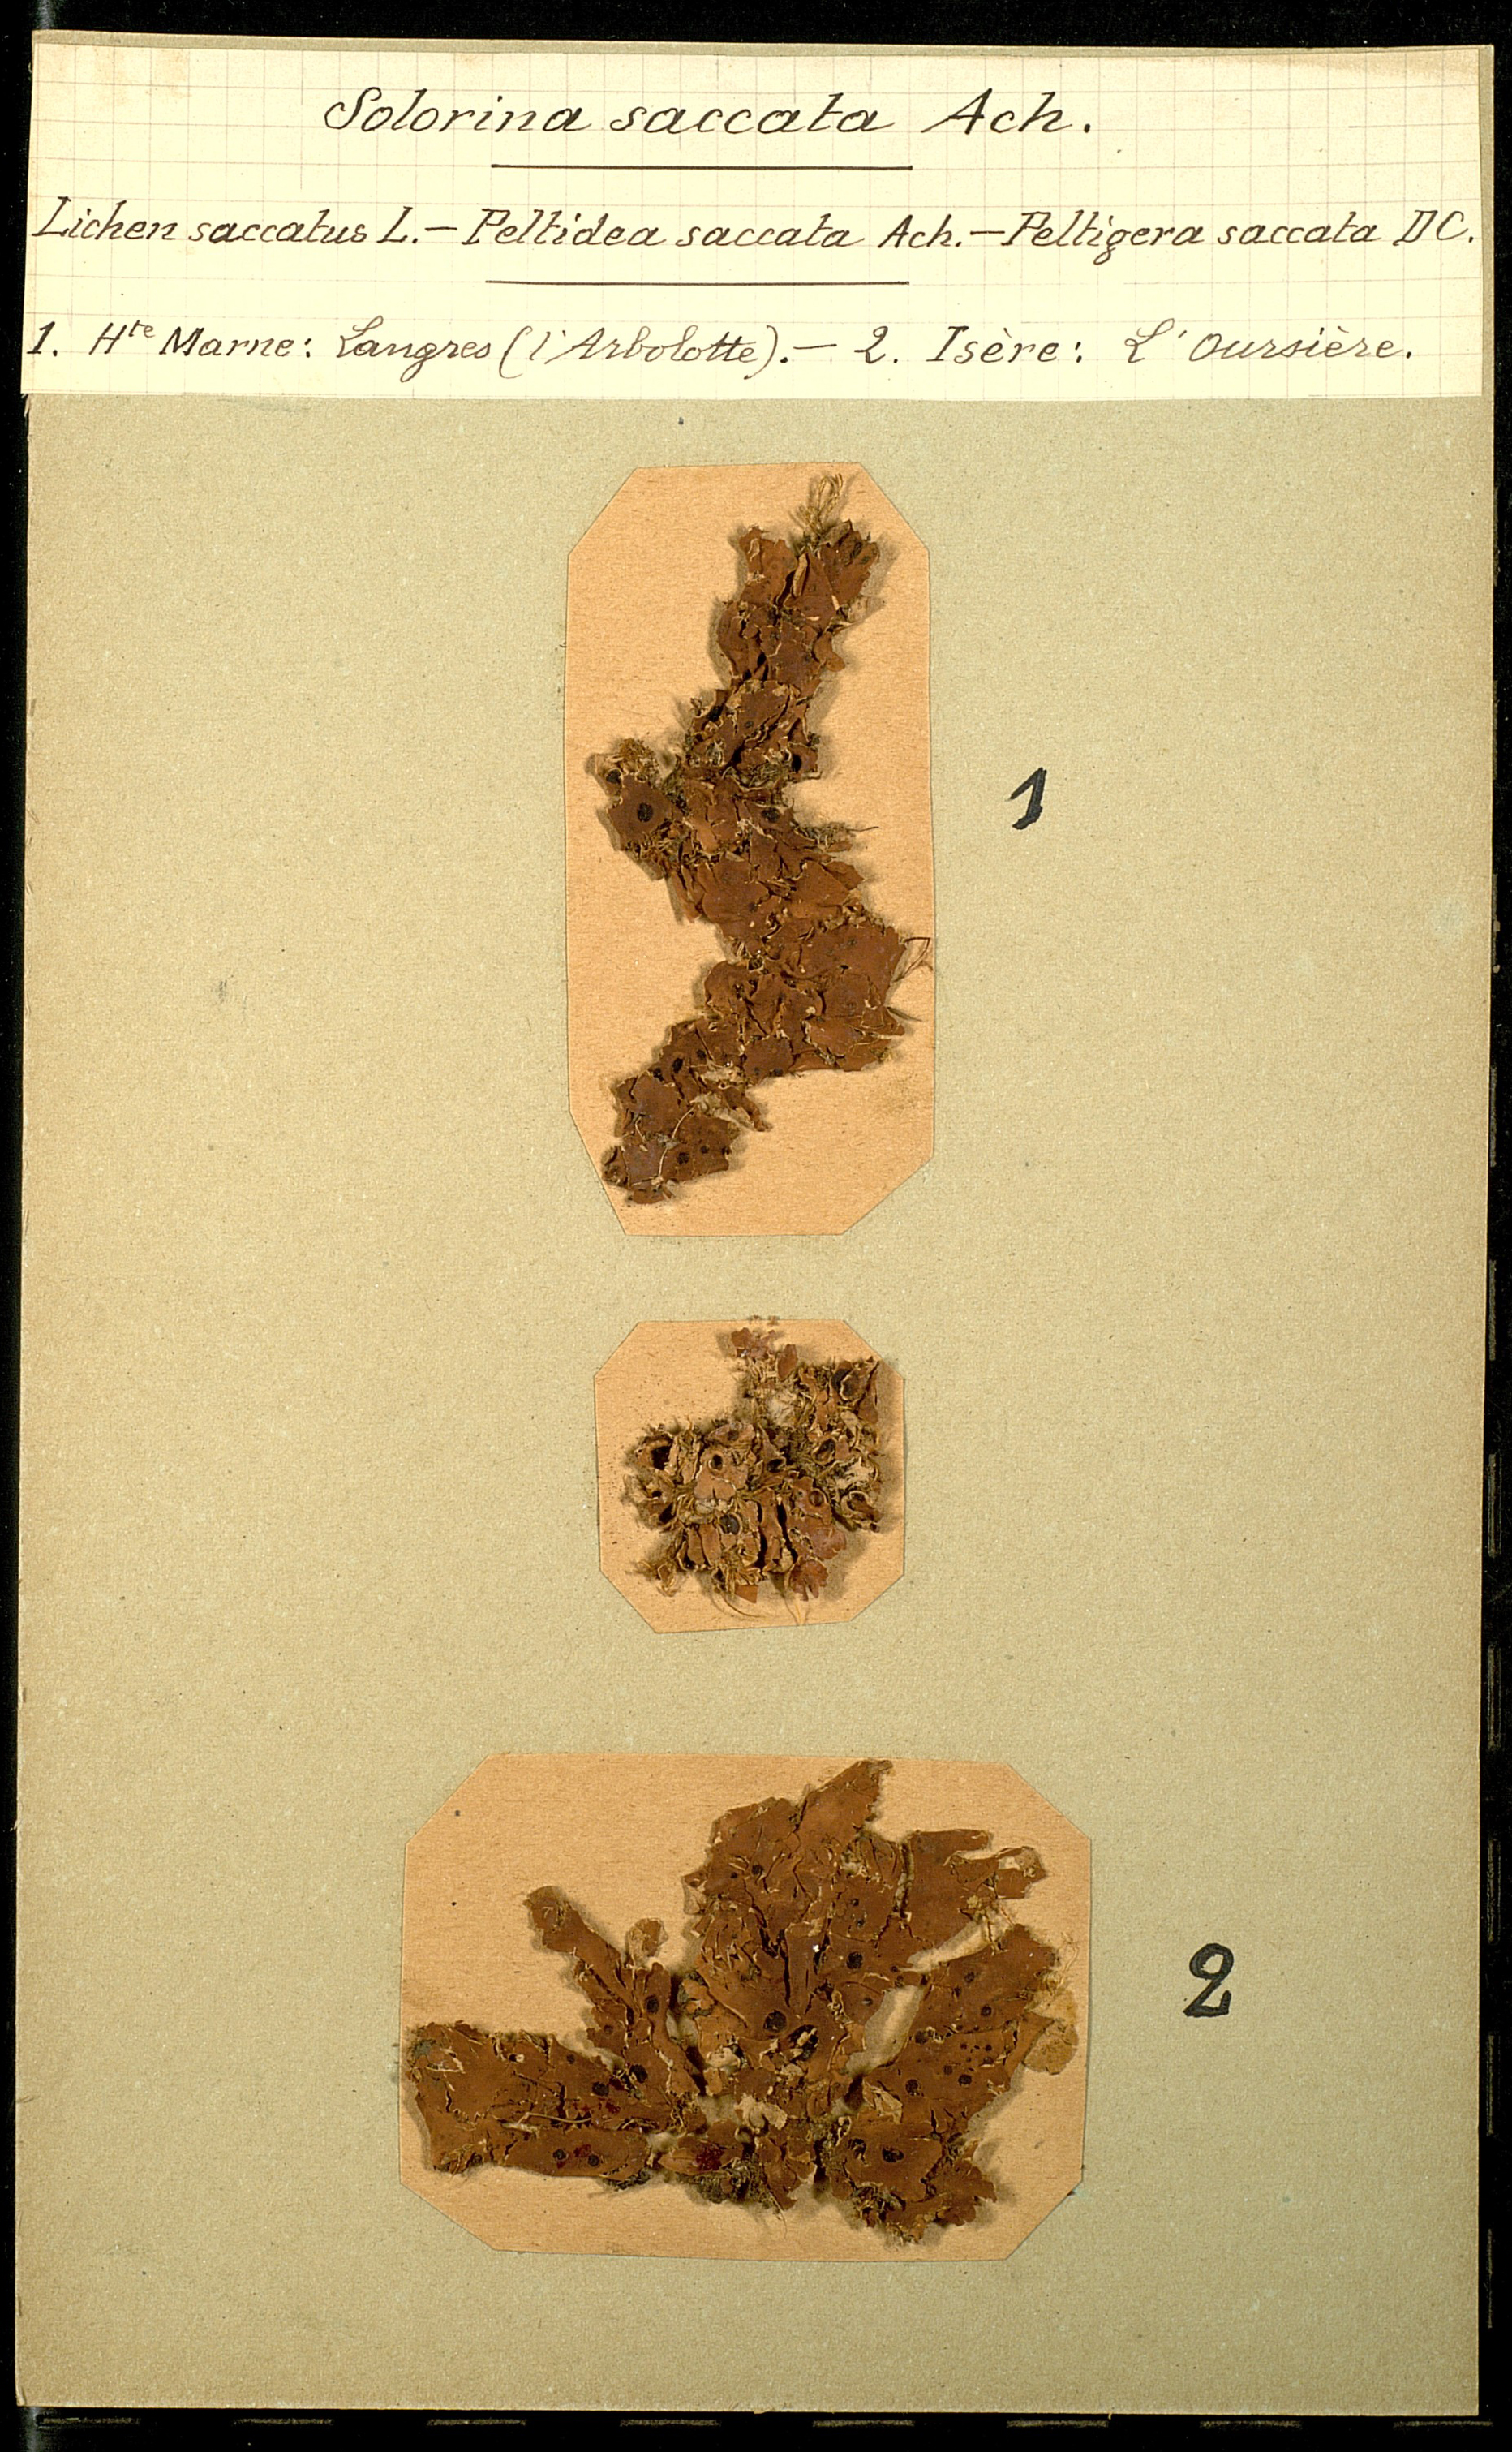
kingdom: Fungi
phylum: Ascomycota
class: Lecanoromycetes
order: Peltigerales
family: Peltigeraceae
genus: Solorina
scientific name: Solorina saccata
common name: Common chocolate chip lichen
